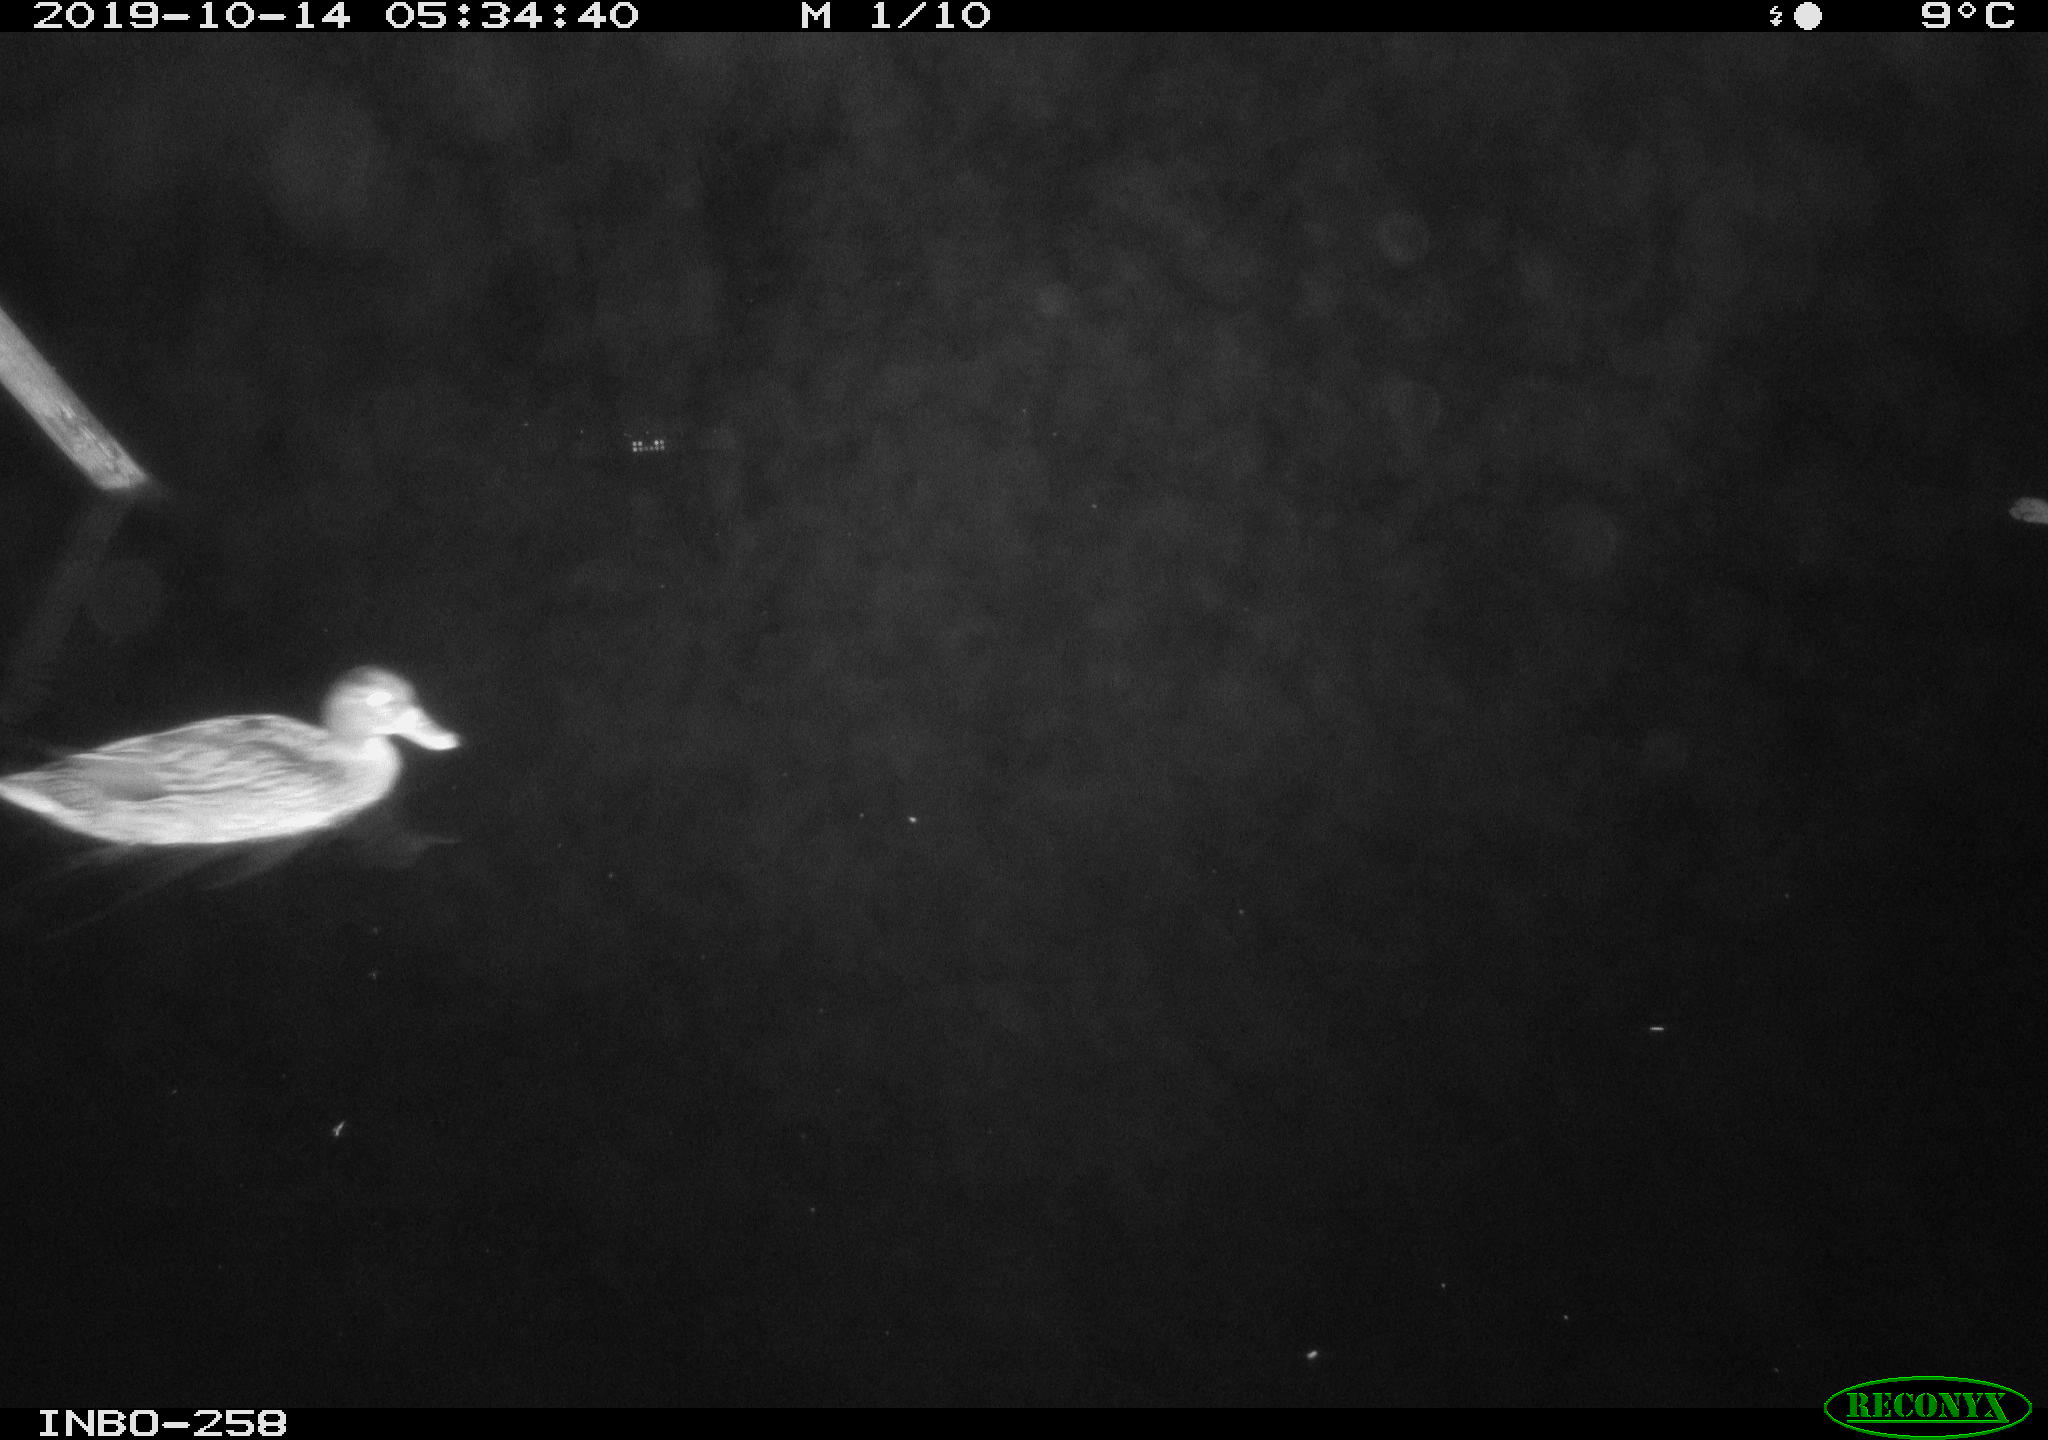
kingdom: Animalia
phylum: Chordata
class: Aves
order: Anseriformes
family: Anatidae
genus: Anas
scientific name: Anas platyrhynchos
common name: Mallard
